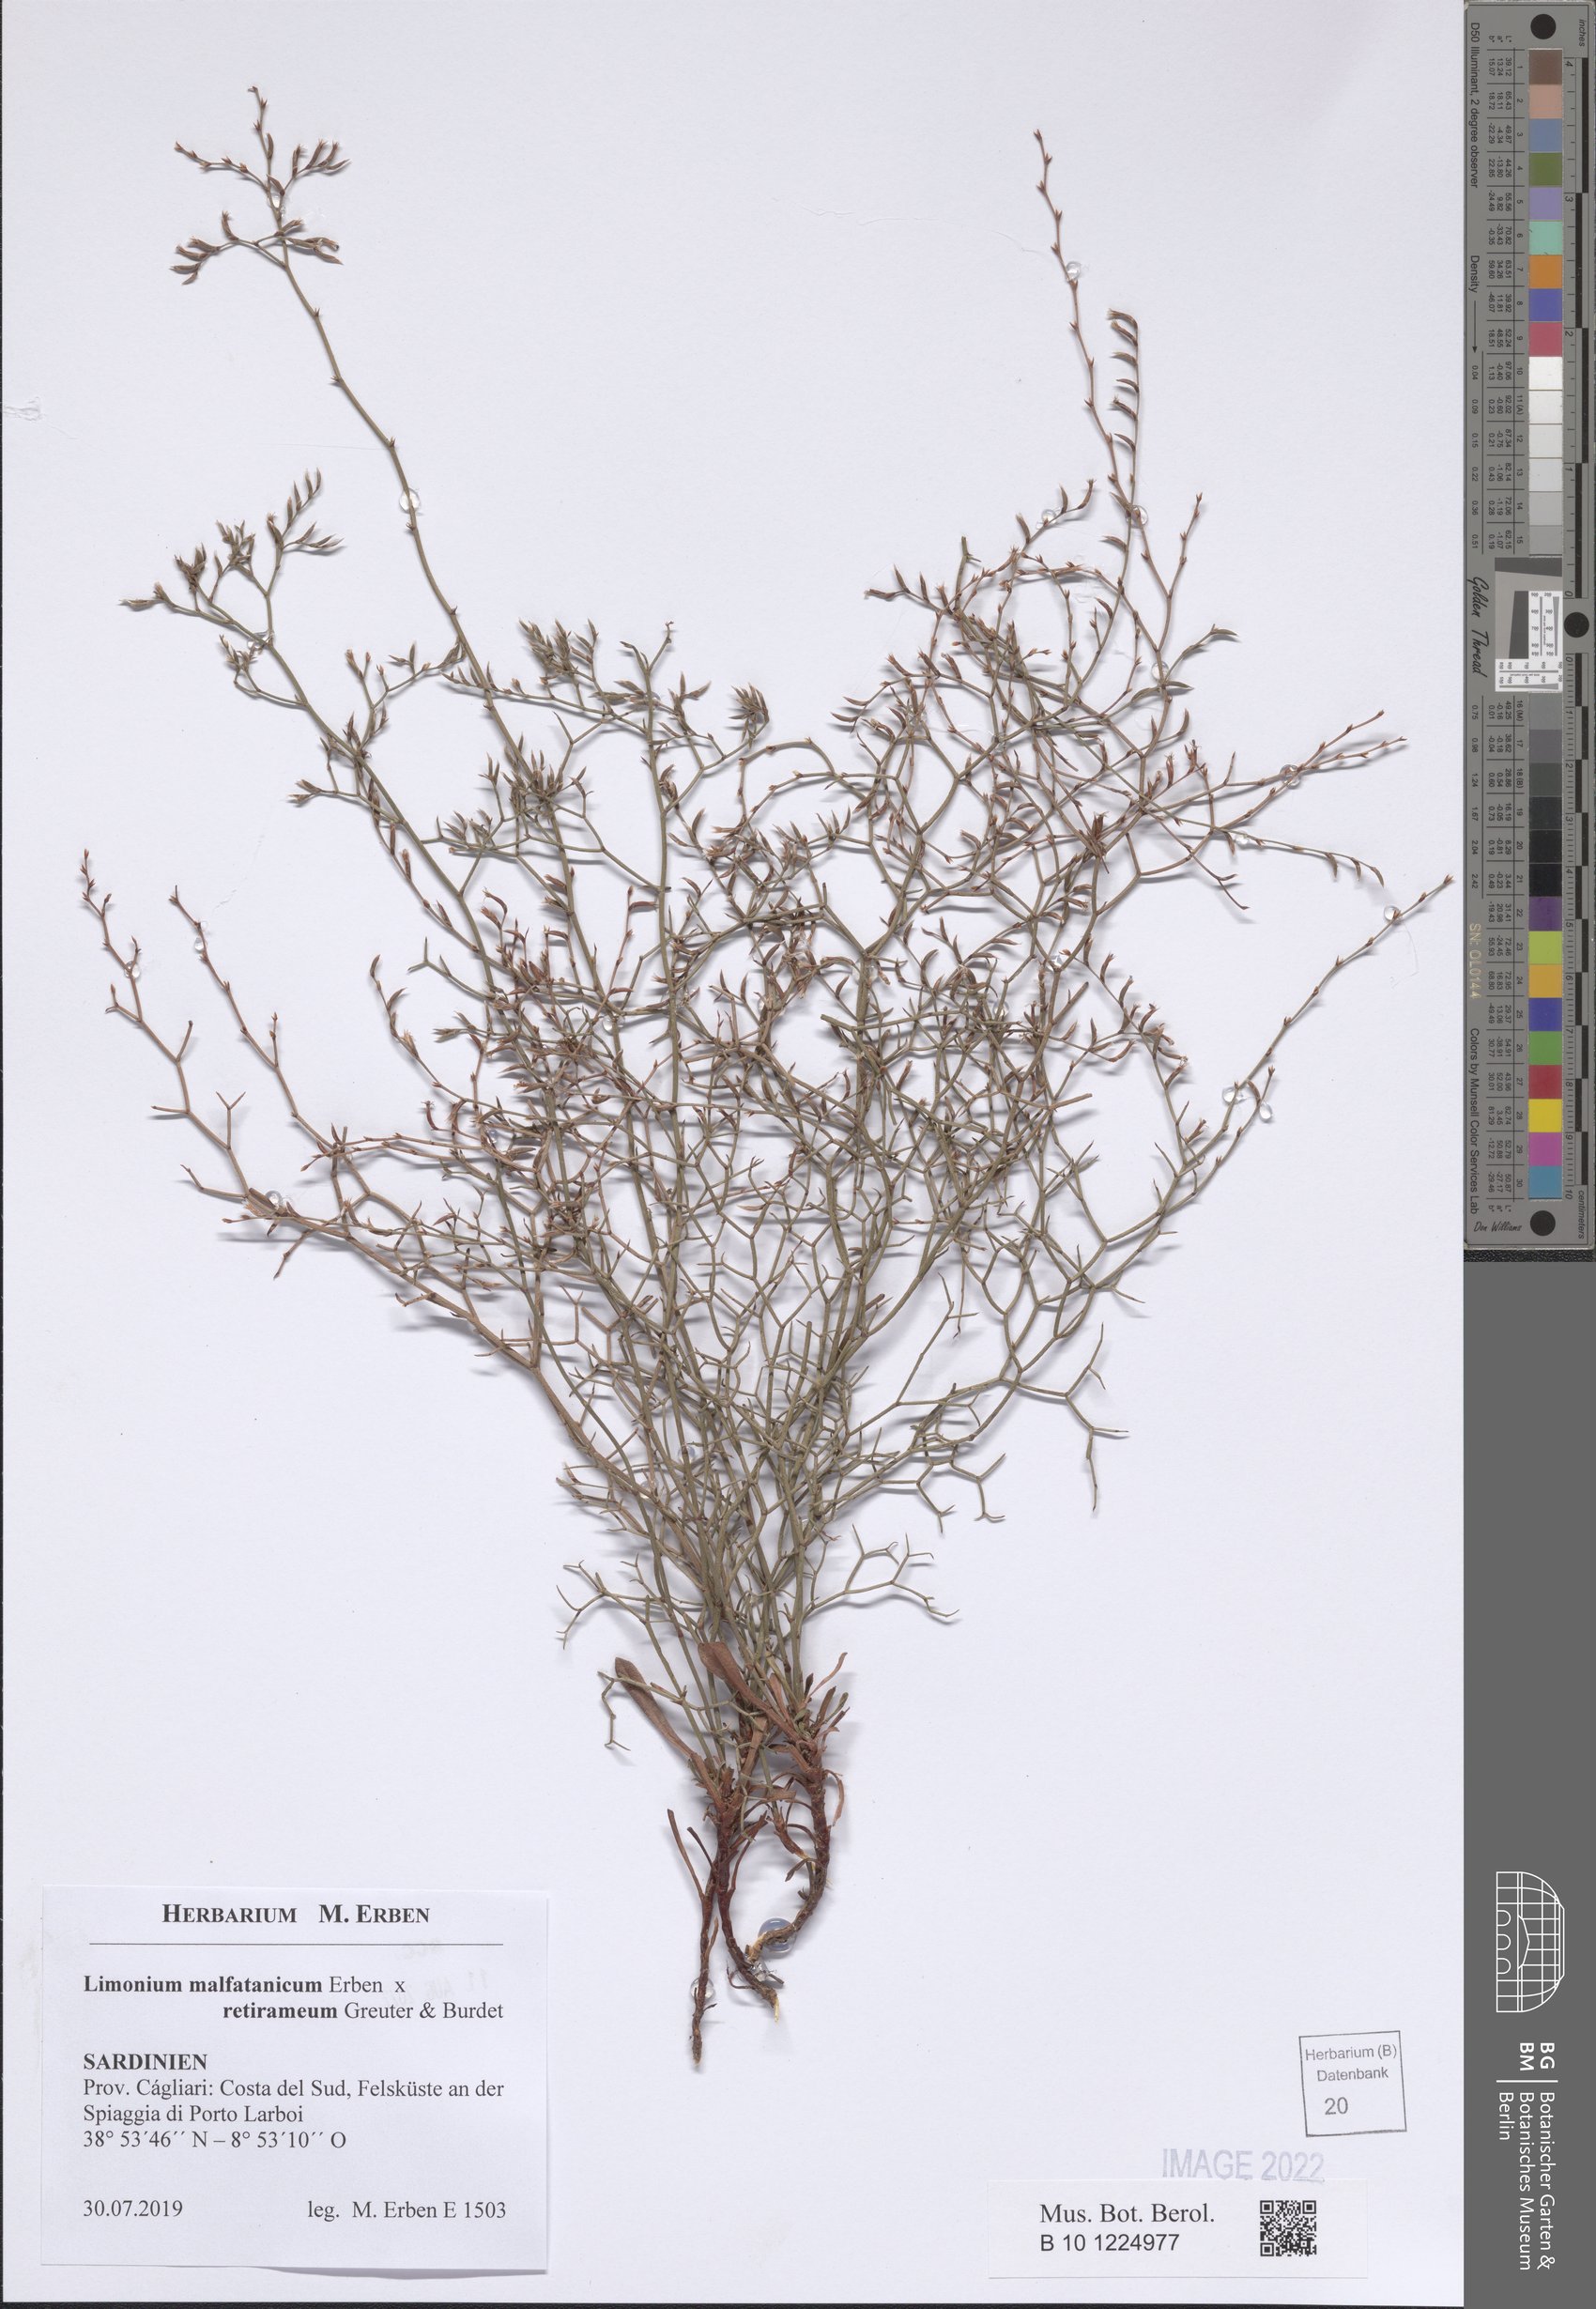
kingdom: Plantae
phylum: Tracheophyta
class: Magnoliopsida
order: Caryophyllales
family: Plumbaginaceae
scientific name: Plumbaginaceae
